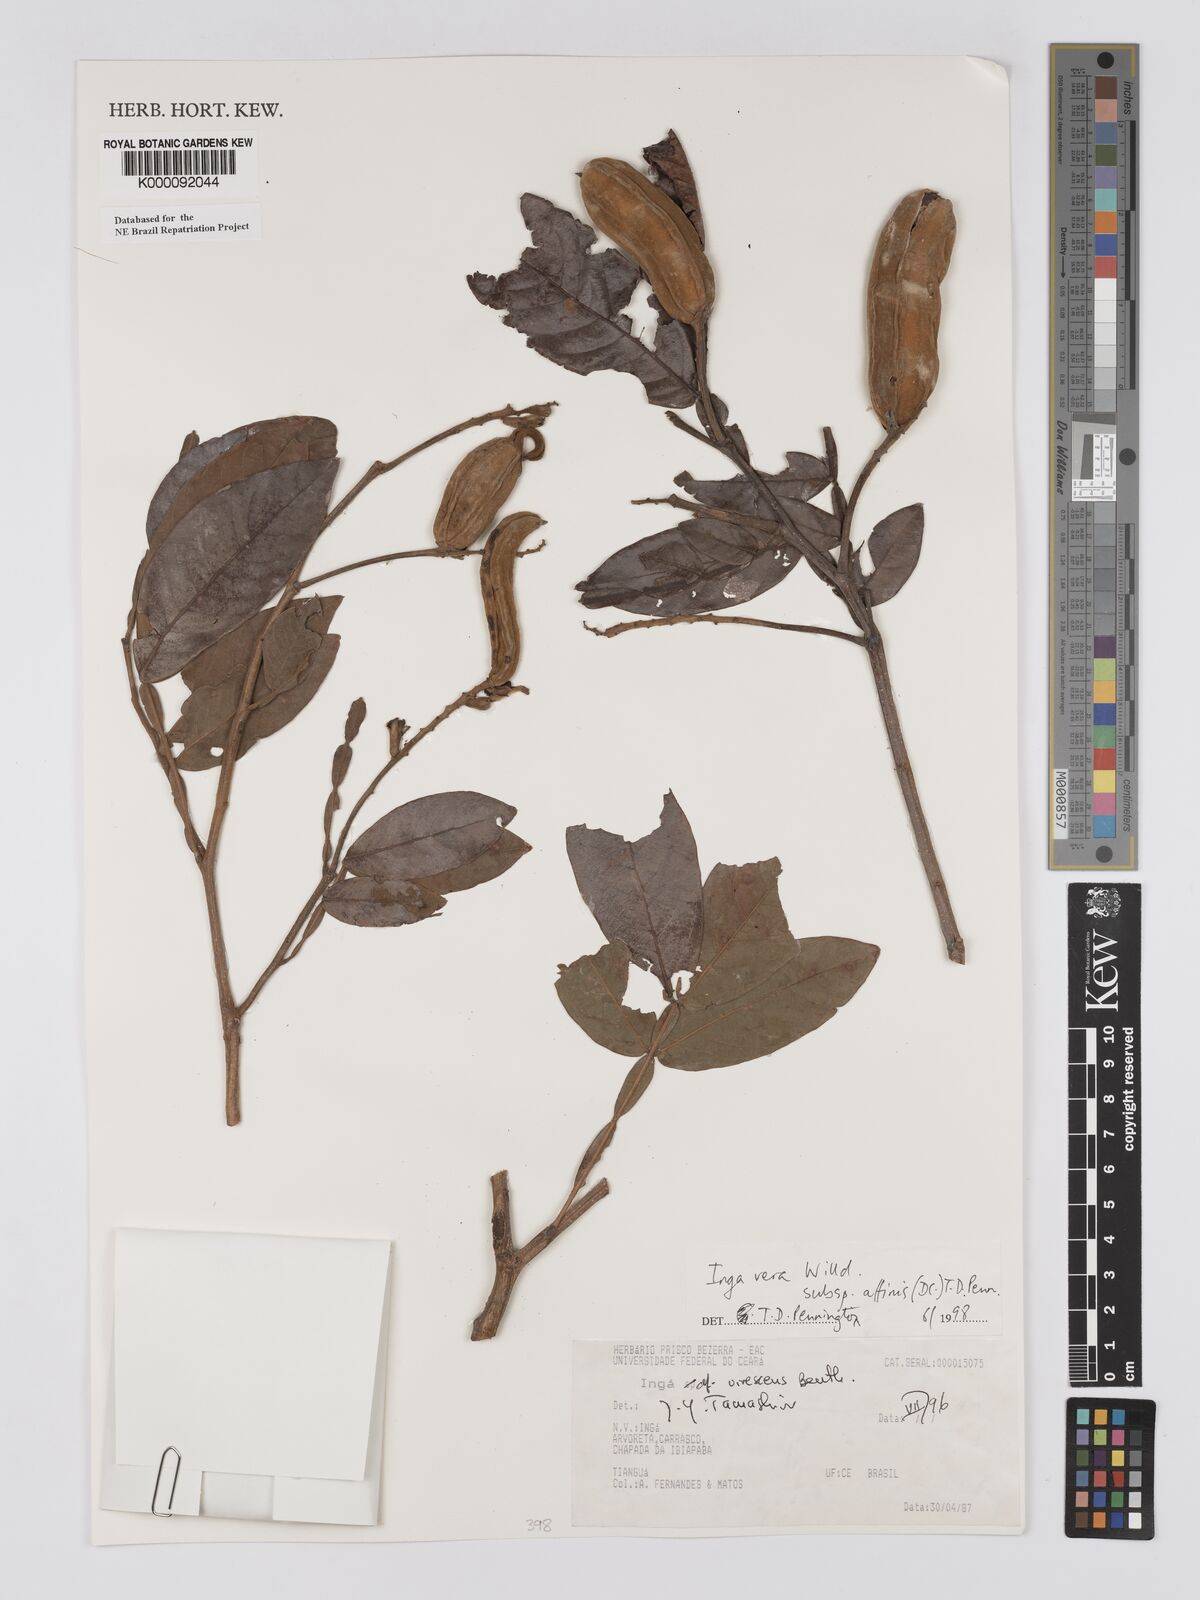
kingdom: Plantae
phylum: Tracheophyta
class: Magnoliopsida
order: Fabales
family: Fabaceae
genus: Inga
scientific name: Inga affinis
